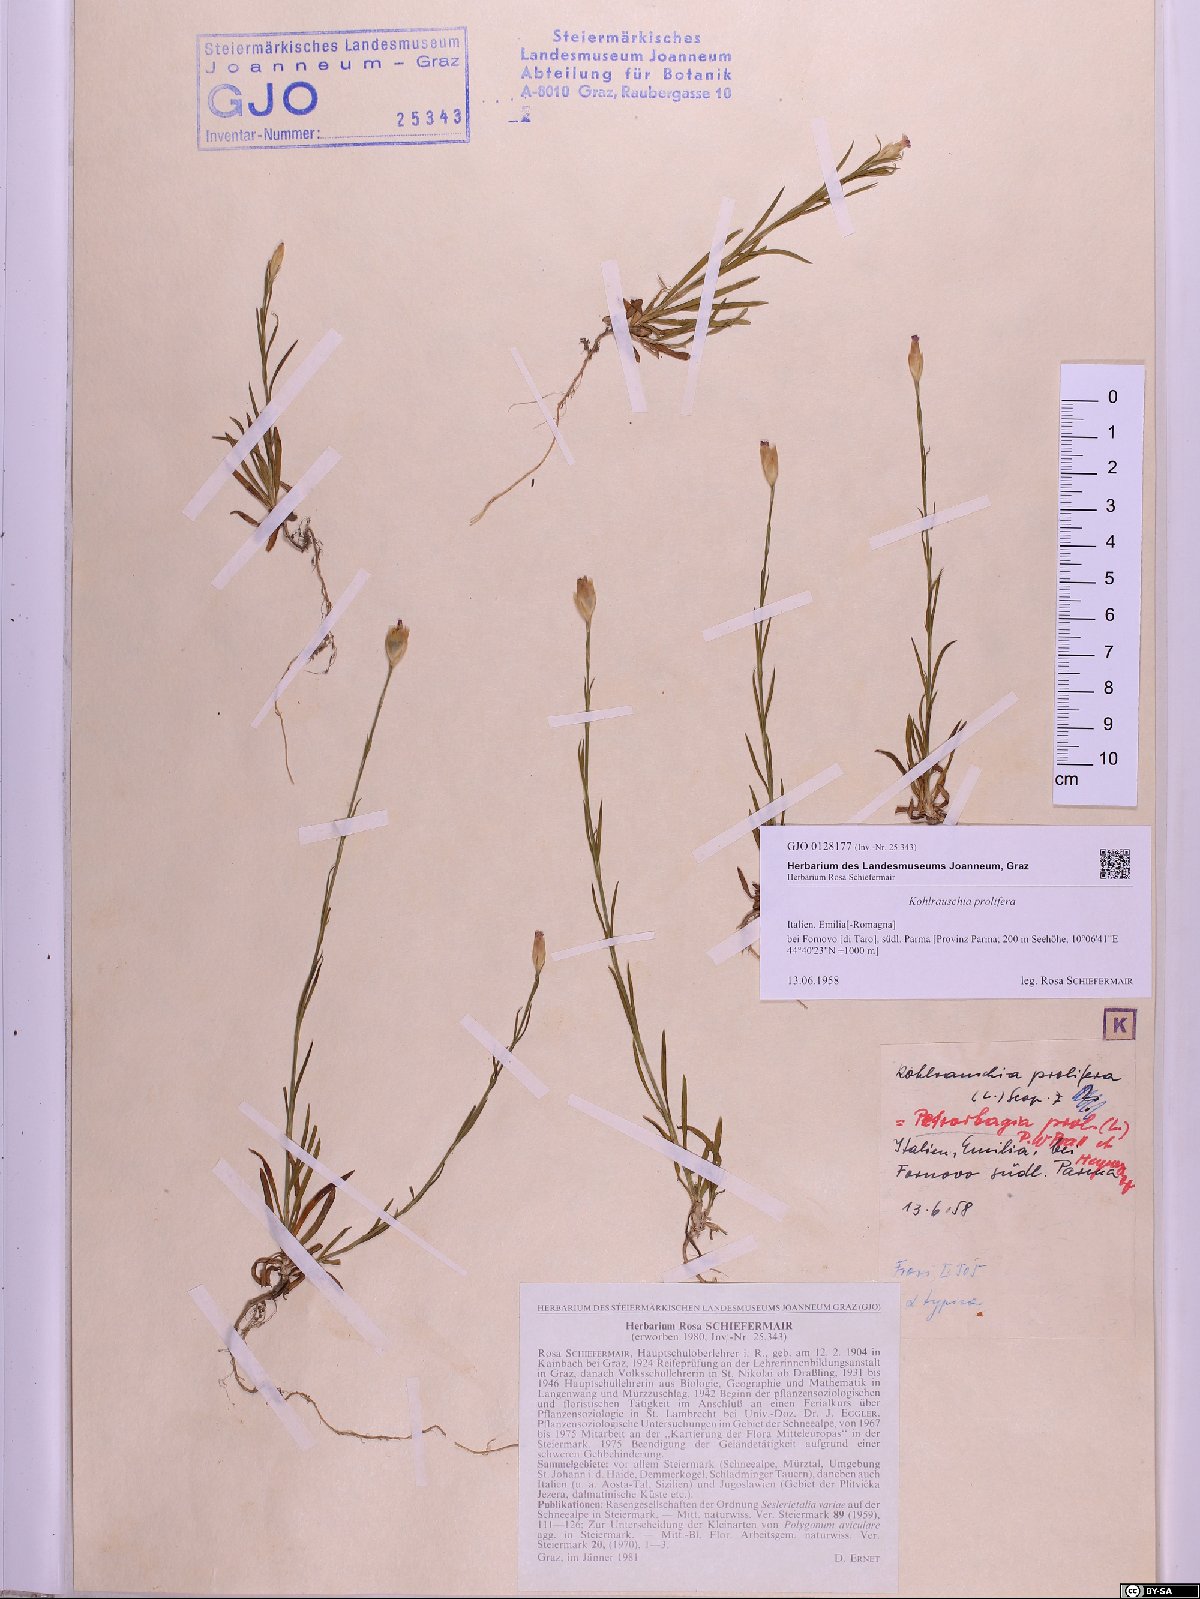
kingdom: Plantae
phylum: Tracheophyta
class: Magnoliopsida
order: Caryophyllales
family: Caryophyllaceae
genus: Petrorhagia
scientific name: Petrorhagia prolifera
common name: Proliferous pink
